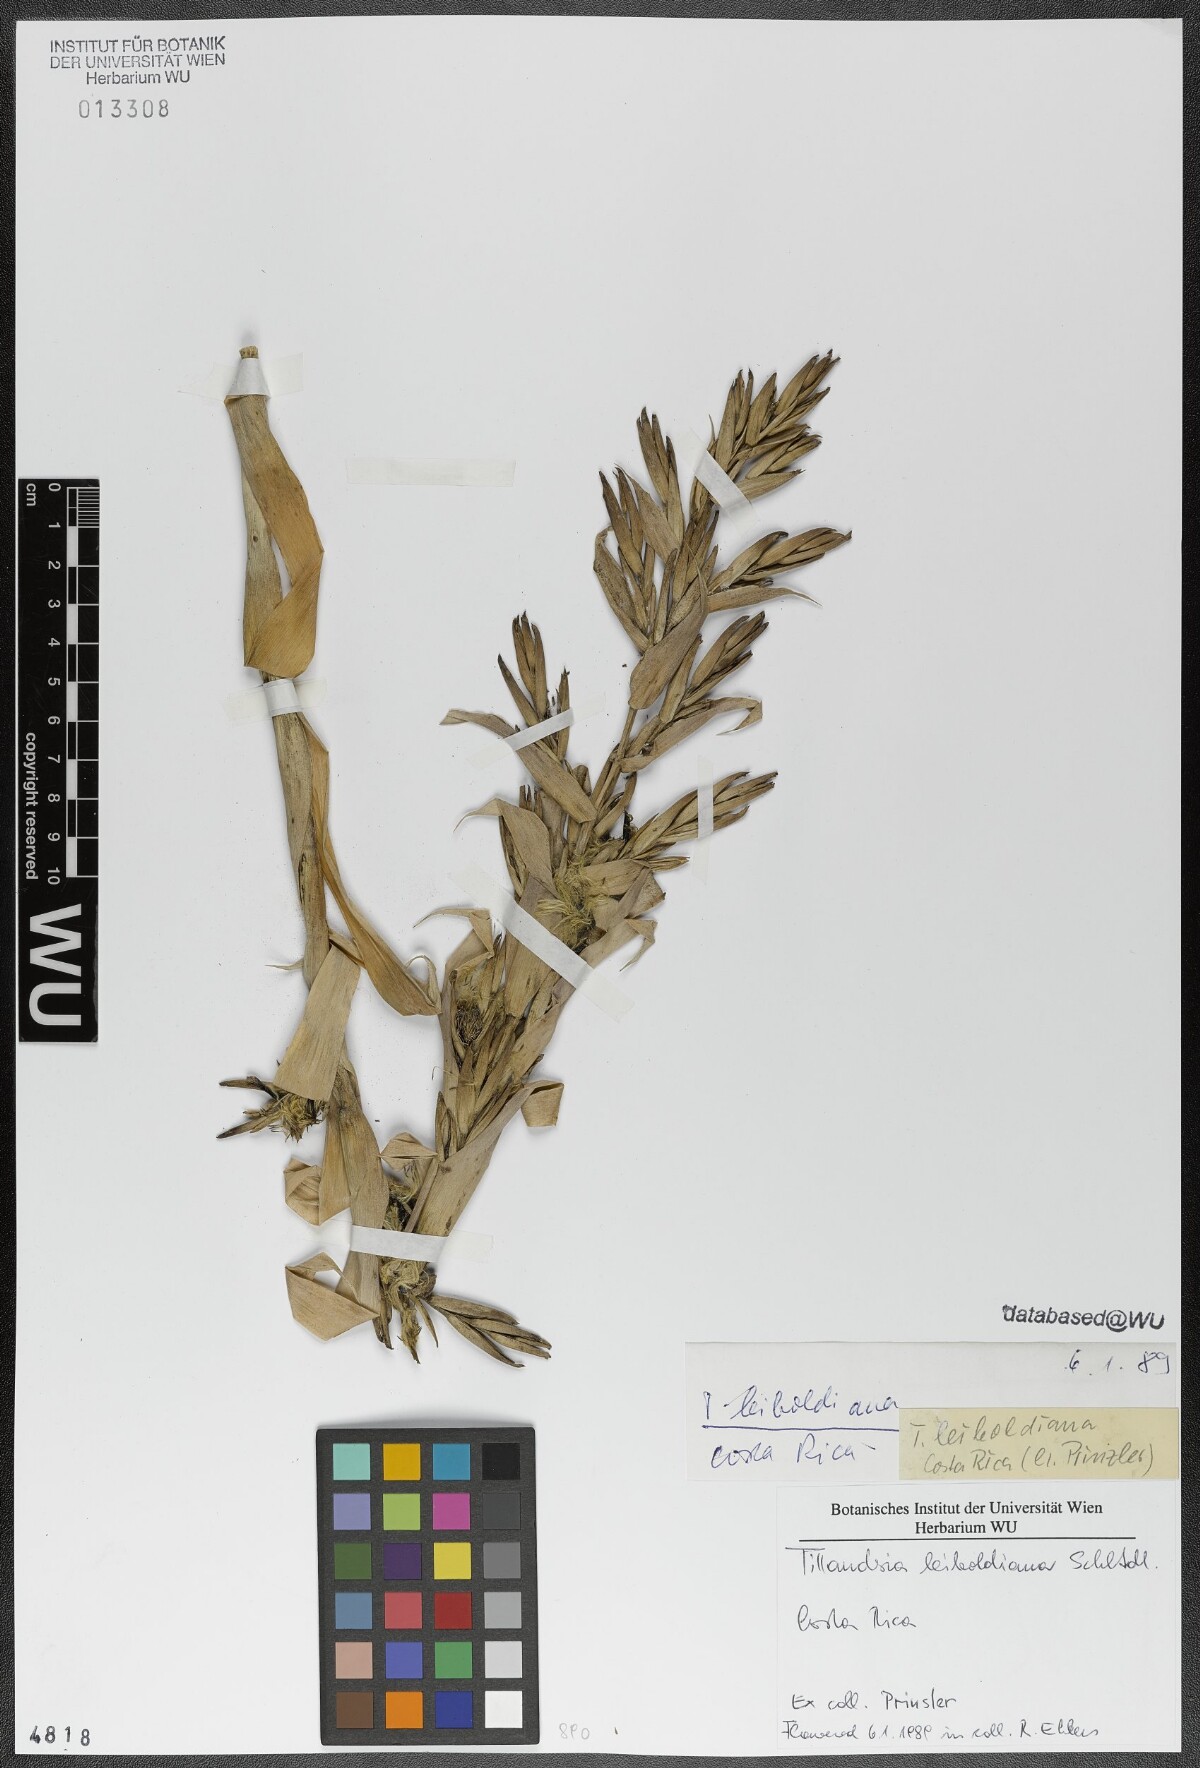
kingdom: Plantae
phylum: Tracheophyta
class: Liliopsida
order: Poales
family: Bromeliaceae
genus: Tillandsia
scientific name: Tillandsia leiboldiana
